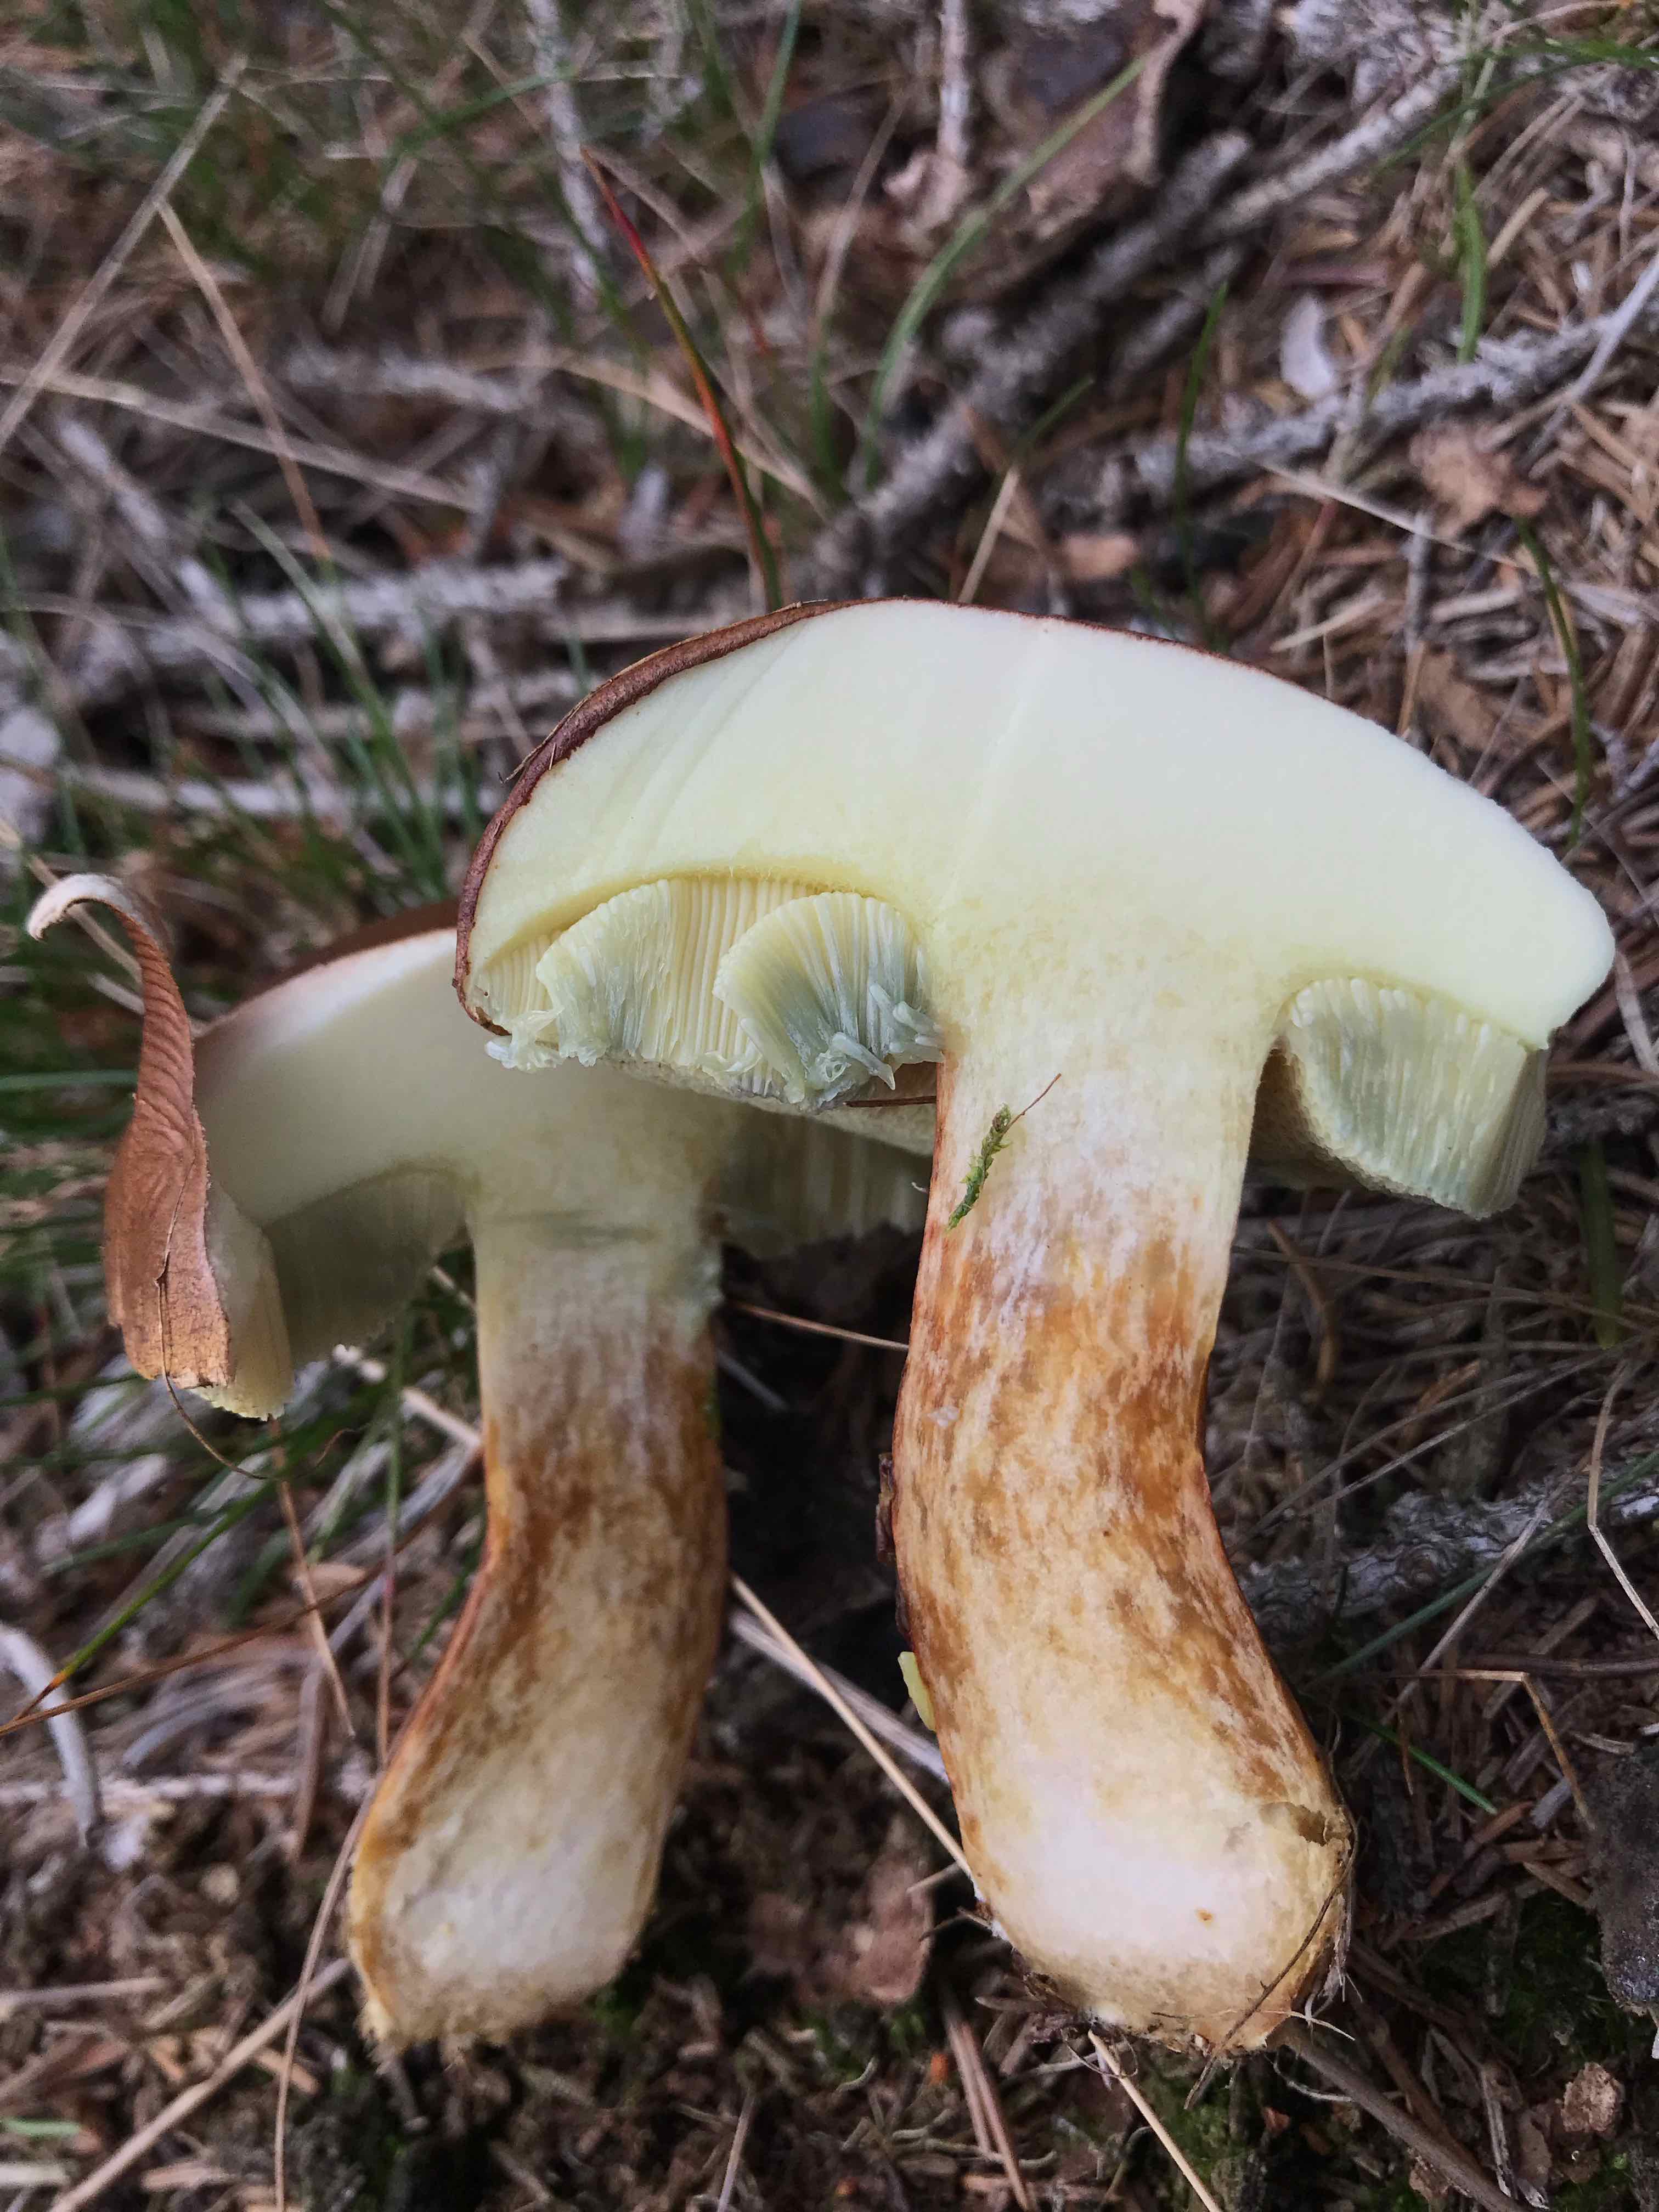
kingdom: Fungi
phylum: Basidiomycota
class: Agaricomycetes
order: Boletales
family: Boletaceae
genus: Imleria
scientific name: Imleria badia
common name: brunstokket rørhat
